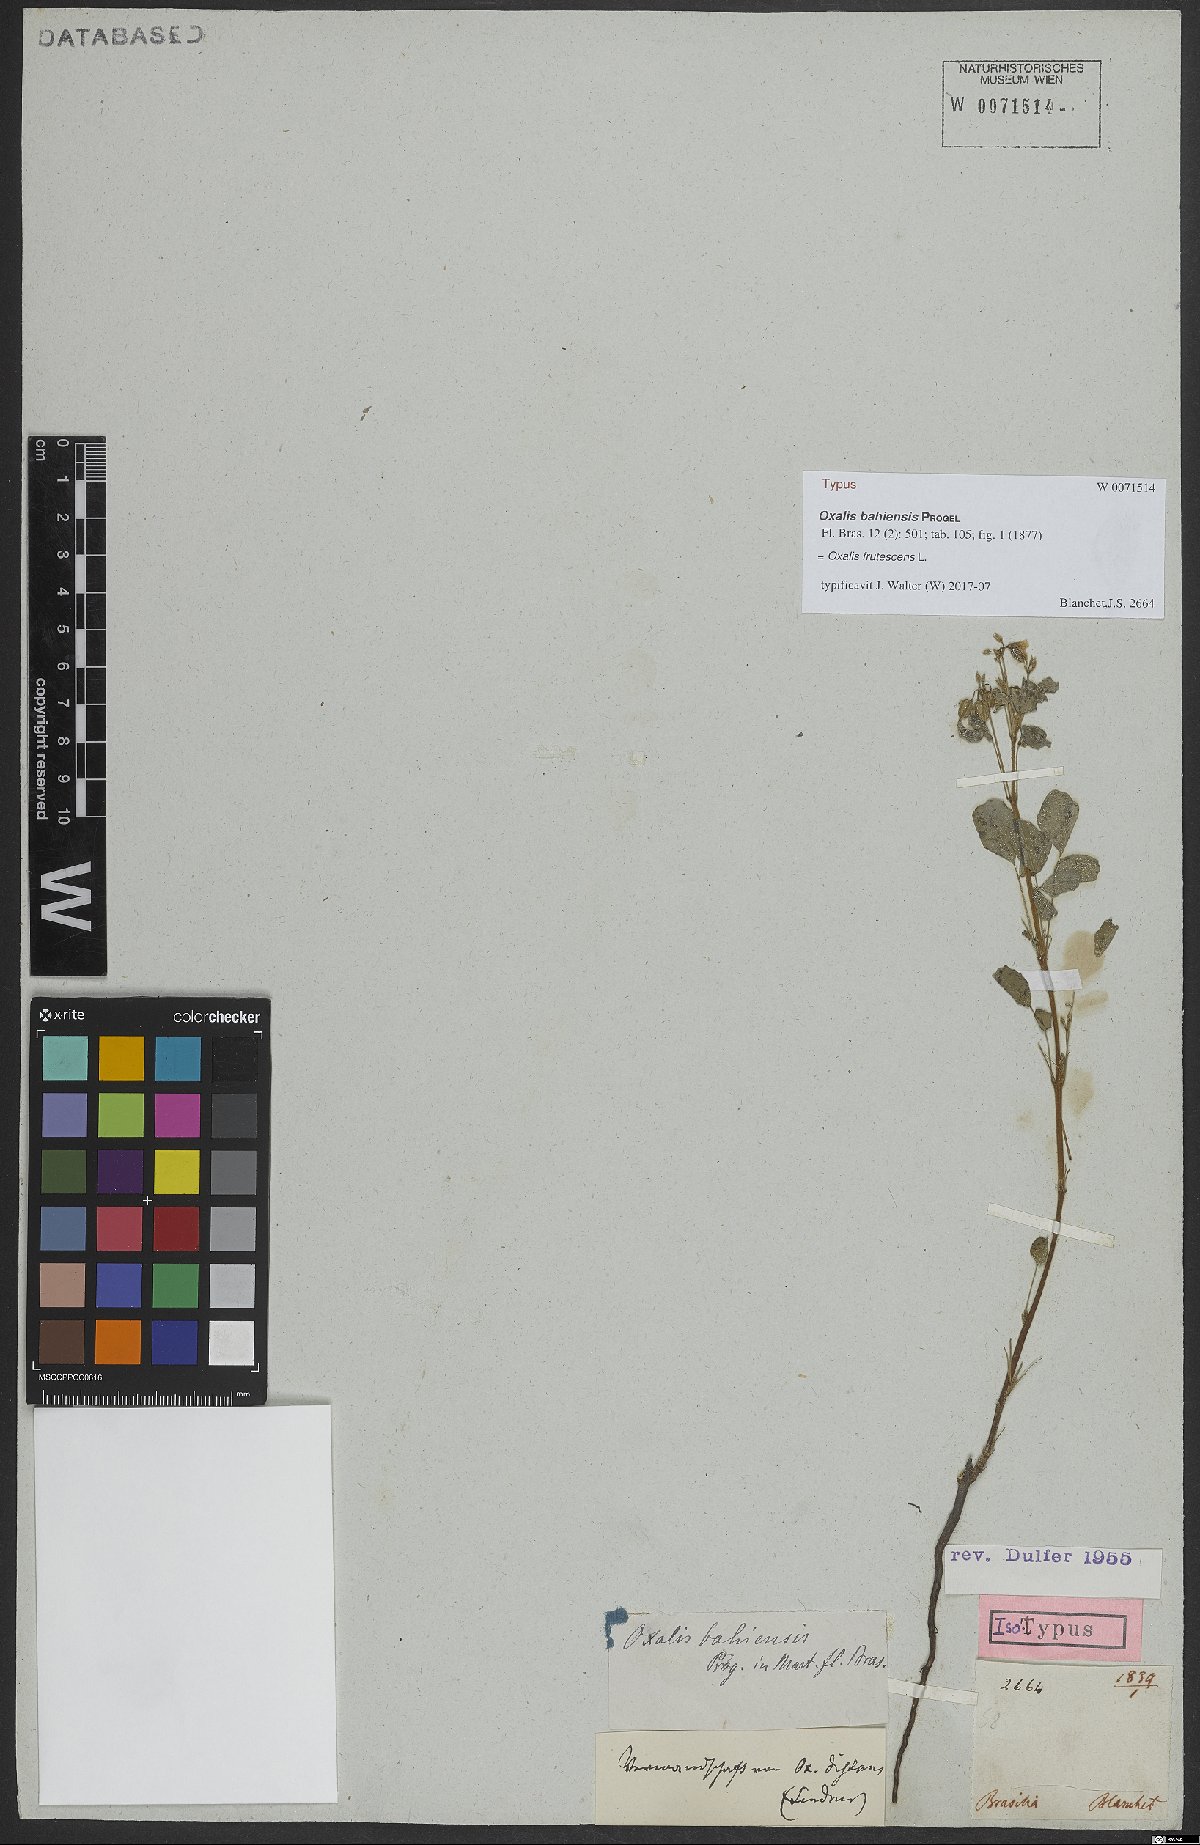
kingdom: Plantae
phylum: Tracheophyta
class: Magnoliopsida
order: Oxalidales
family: Oxalidaceae
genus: Oxalis
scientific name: Oxalis frutescens
